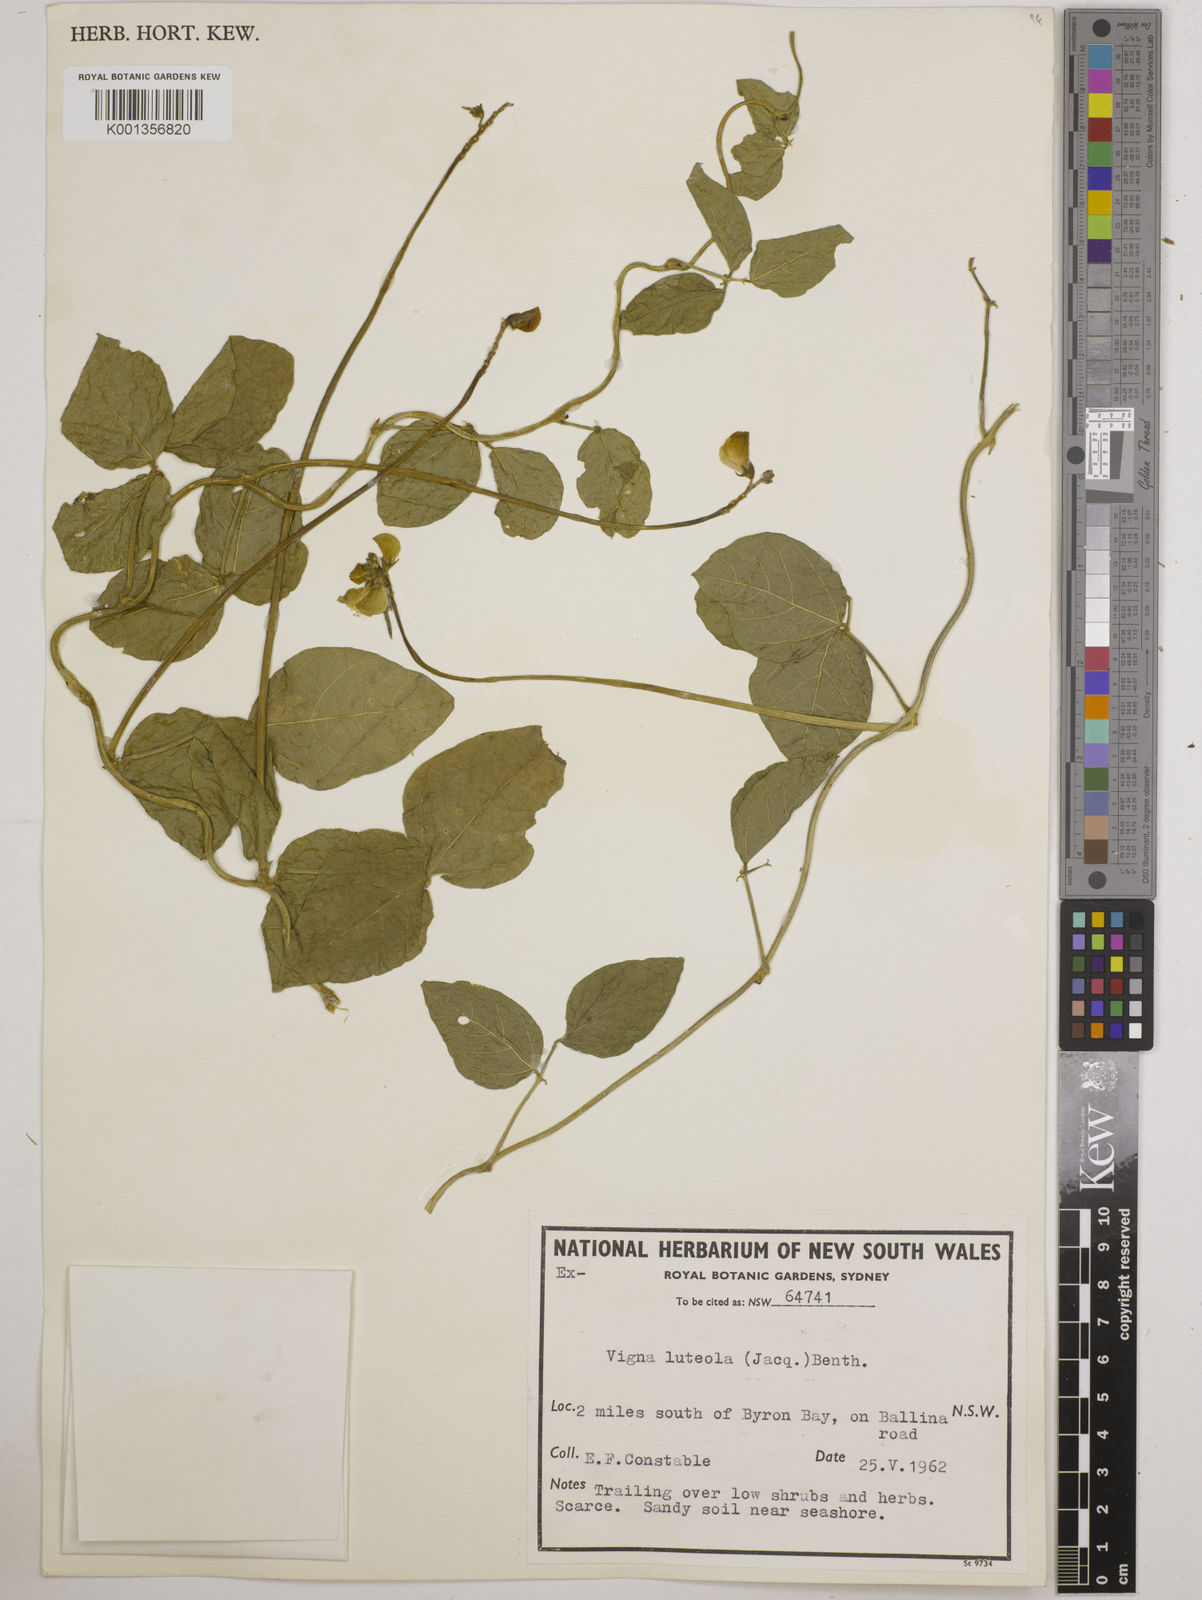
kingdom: Plantae
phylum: Tracheophyta
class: Magnoliopsida
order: Fabales
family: Fabaceae
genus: Vigna
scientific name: Vigna luteola
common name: Hairypod cowpea
